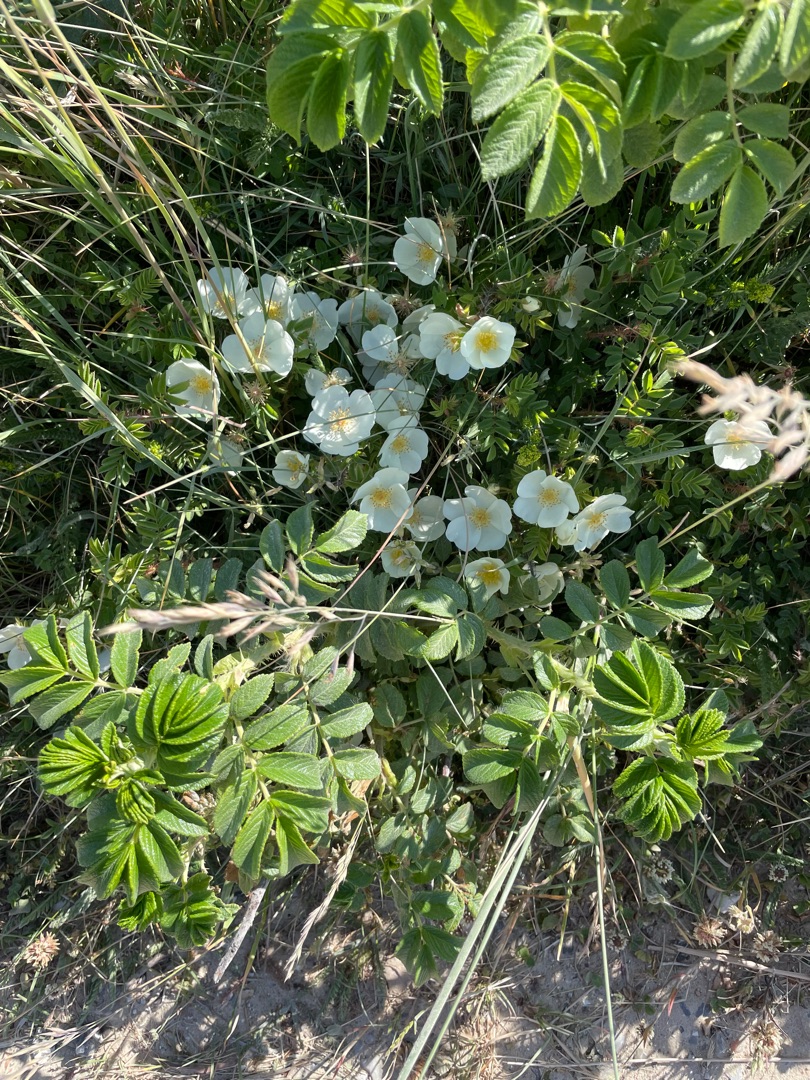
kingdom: Plantae
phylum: Tracheophyta
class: Magnoliopsida
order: Rosales
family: Rosaceae
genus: Rosa
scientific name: Rosa spinosissima
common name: Klit-rose
